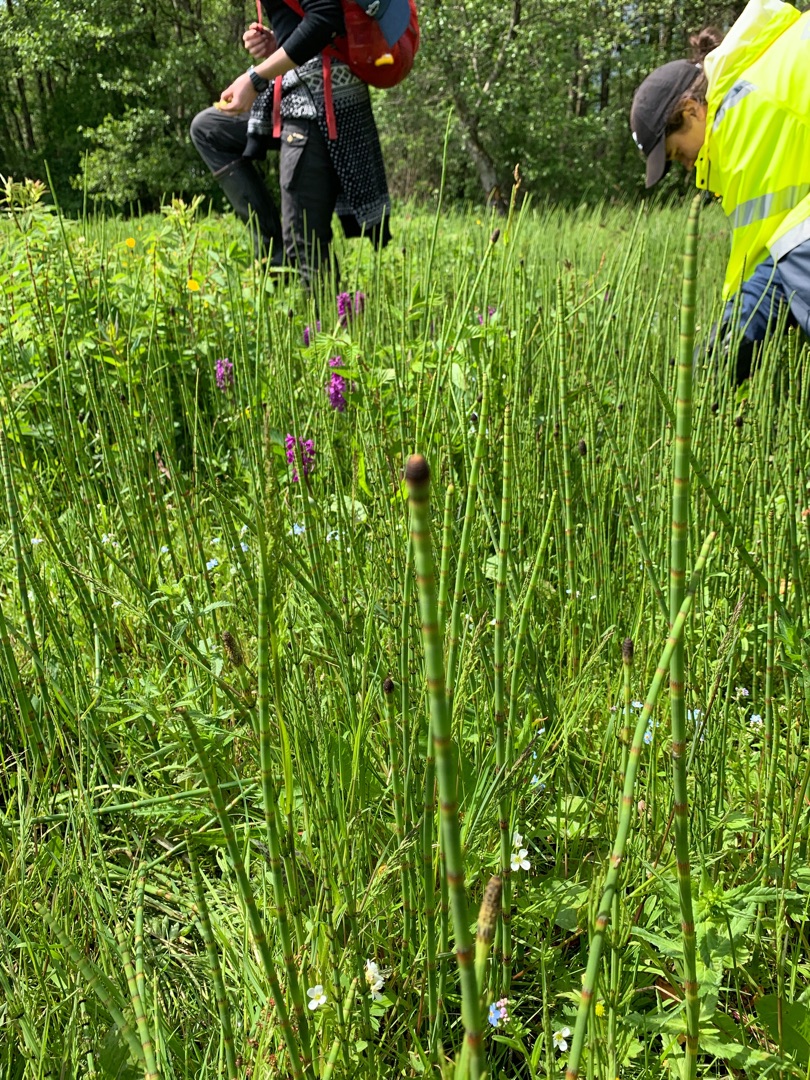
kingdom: Plantae
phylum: Tracheophyta
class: Polypodiopsida
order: Equisetales
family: Equisetaceae
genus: Equisetum
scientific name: Equisetum fluviatile
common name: Dynd-padderok
